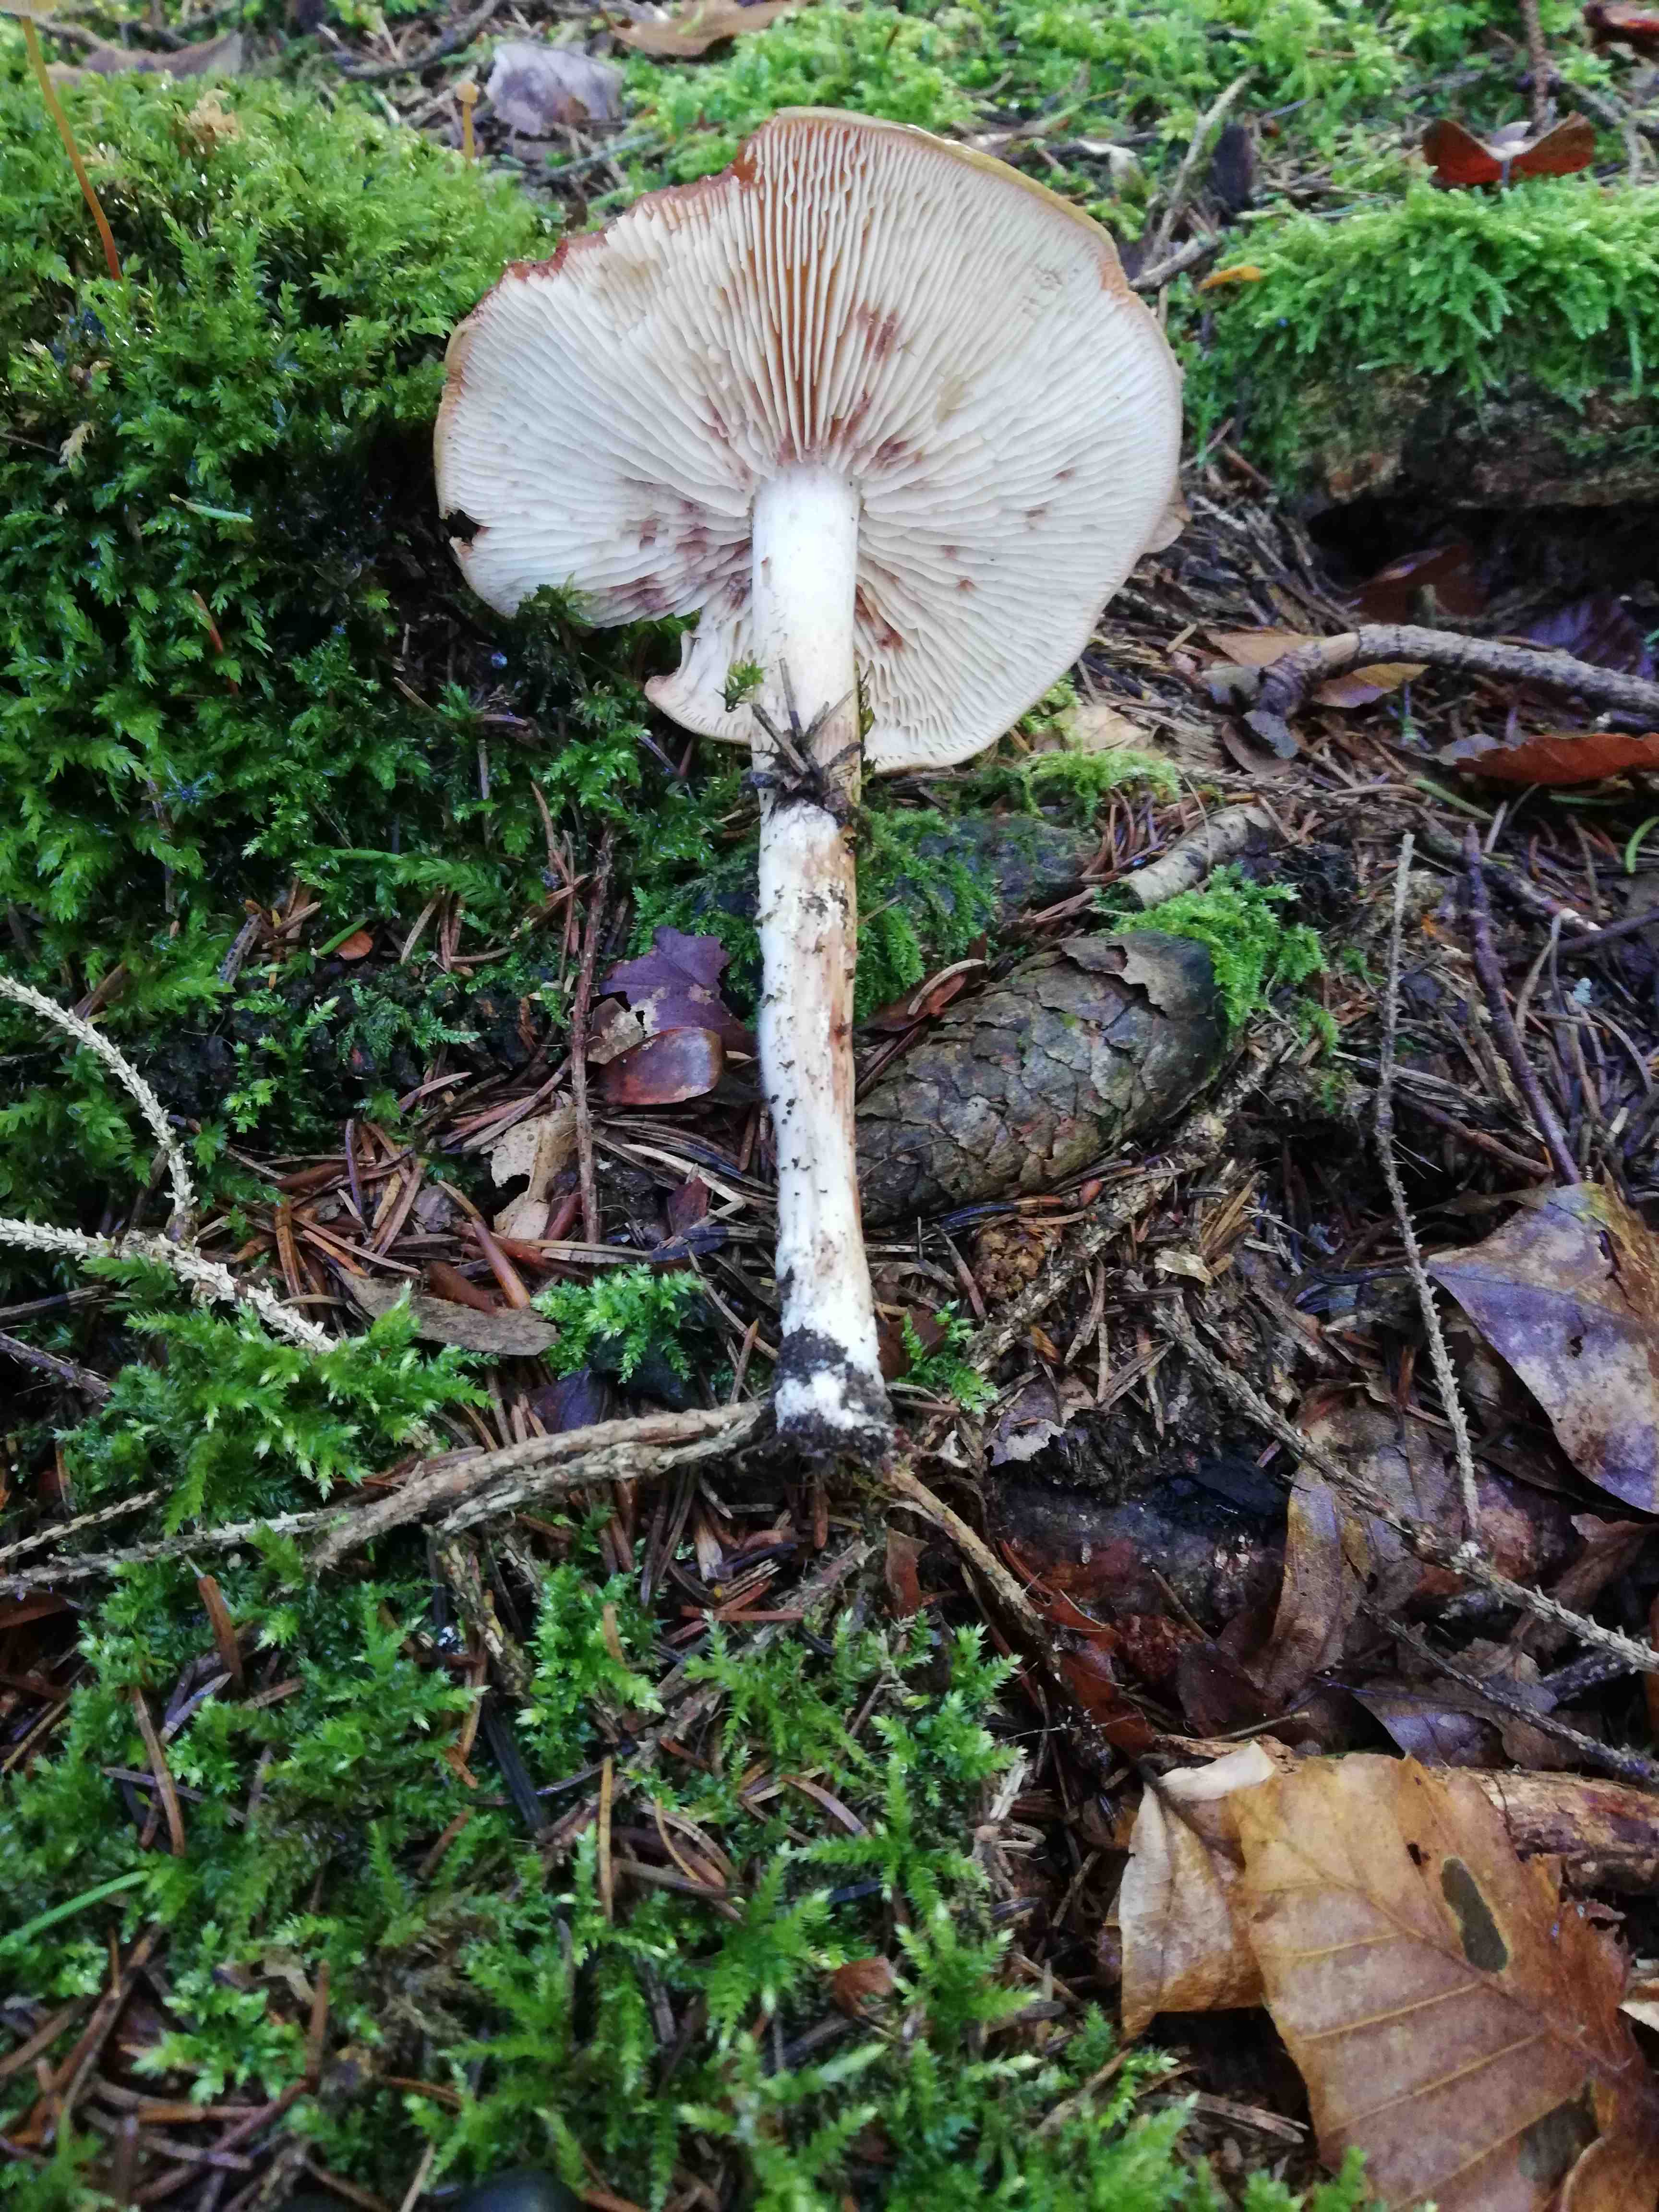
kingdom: Fungi
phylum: Basidiomycota
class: Agaricomycetes
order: Agaricales
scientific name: Agaricales
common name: champignonordenen
